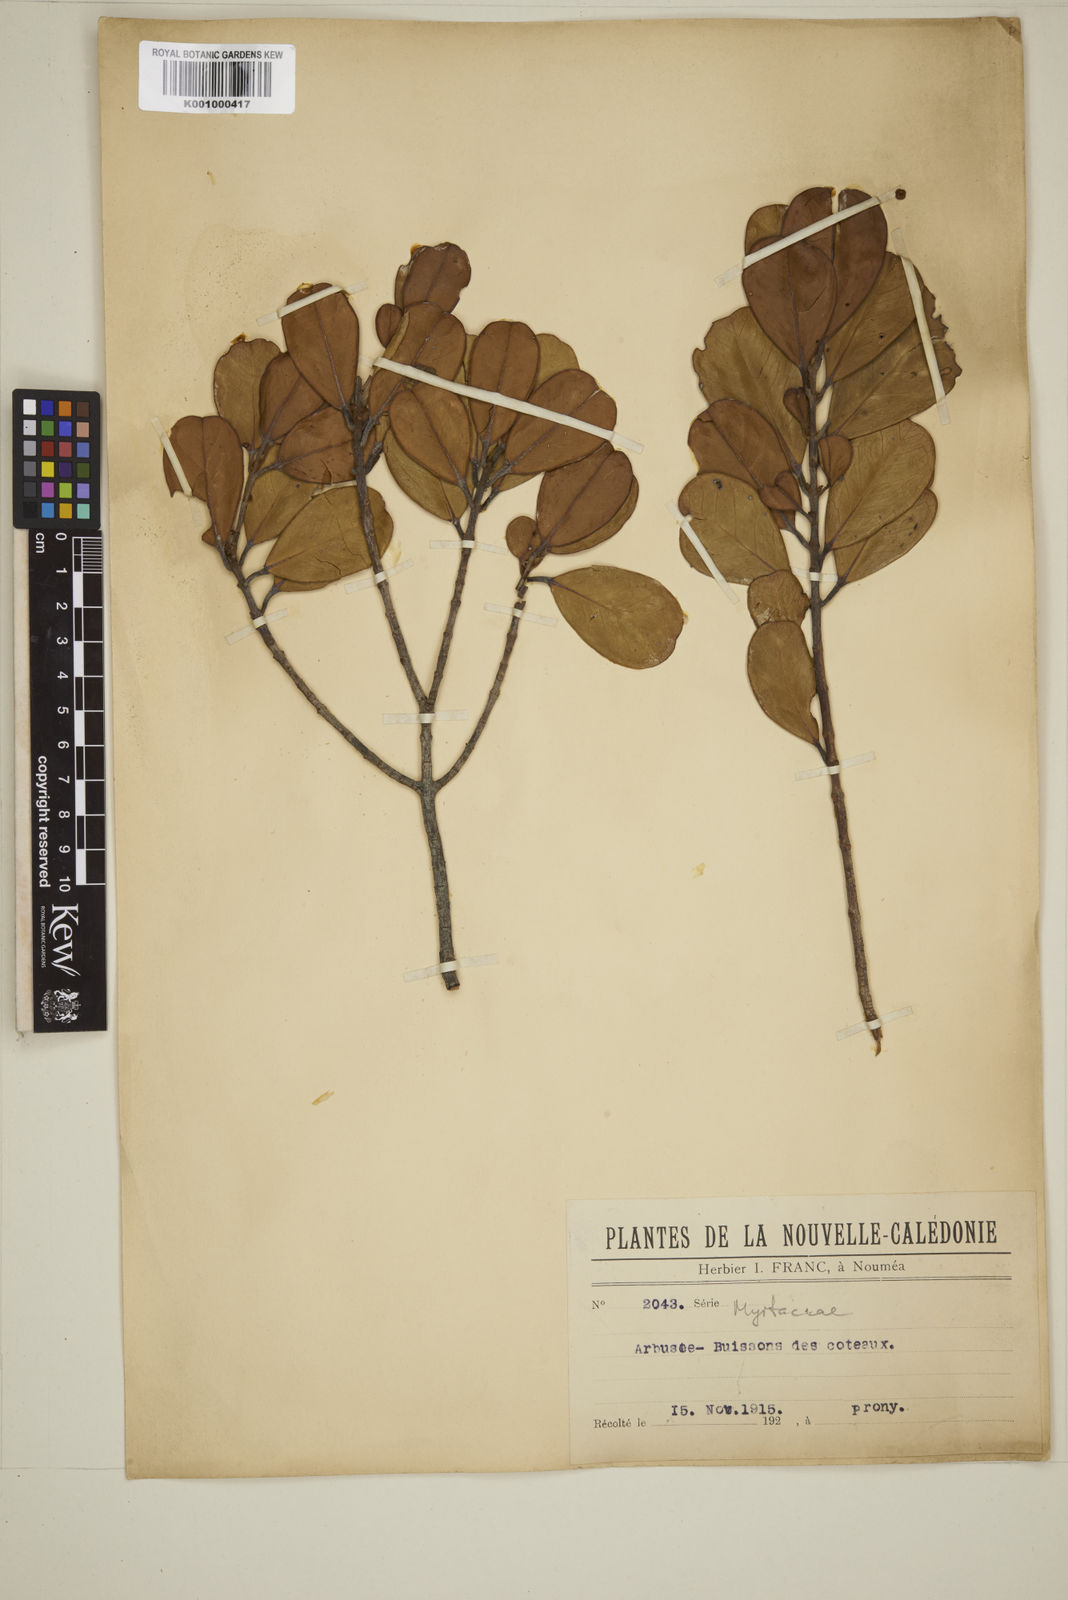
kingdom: Plantae
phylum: Tracheophyta
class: Magnoliopsida
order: Myrtales
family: Myrtaceae
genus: Eugenia
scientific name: Eugenia
